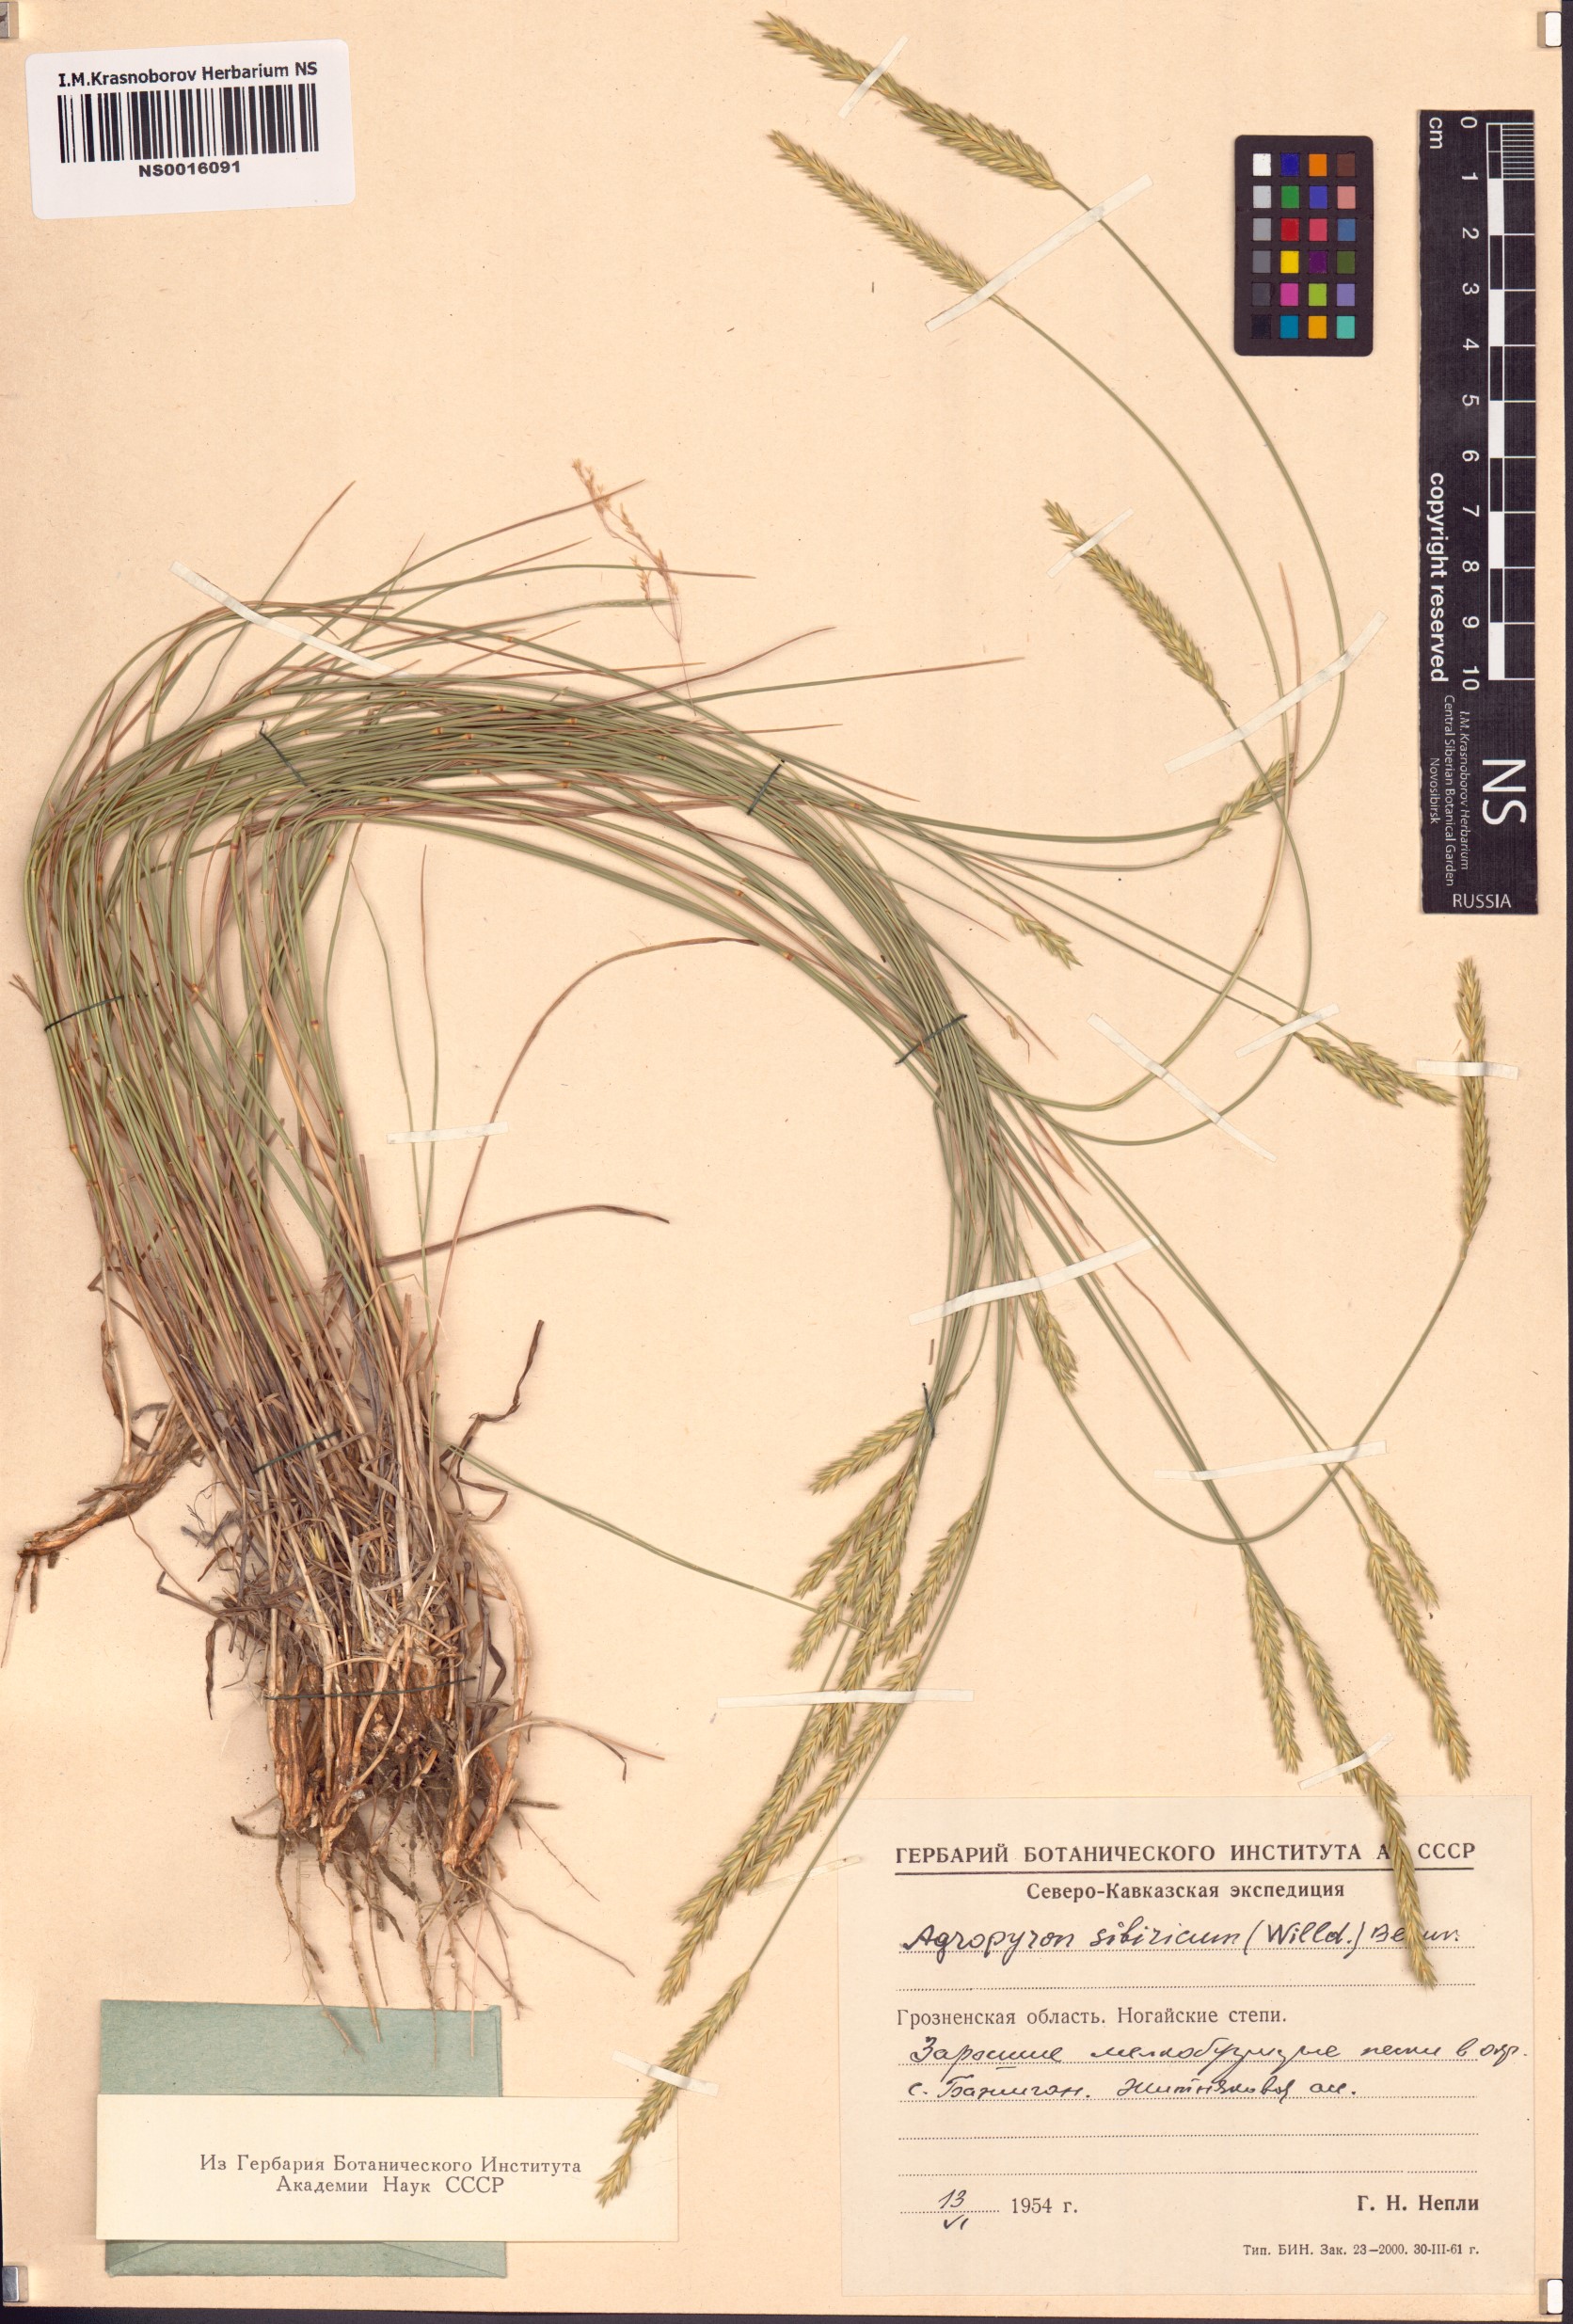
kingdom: Plantae
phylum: Tracheophyta
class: Liliopsida
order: Poales
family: Poaceae
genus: Agropyron
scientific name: Agropyron fragile
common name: Siberian wheatgrass
